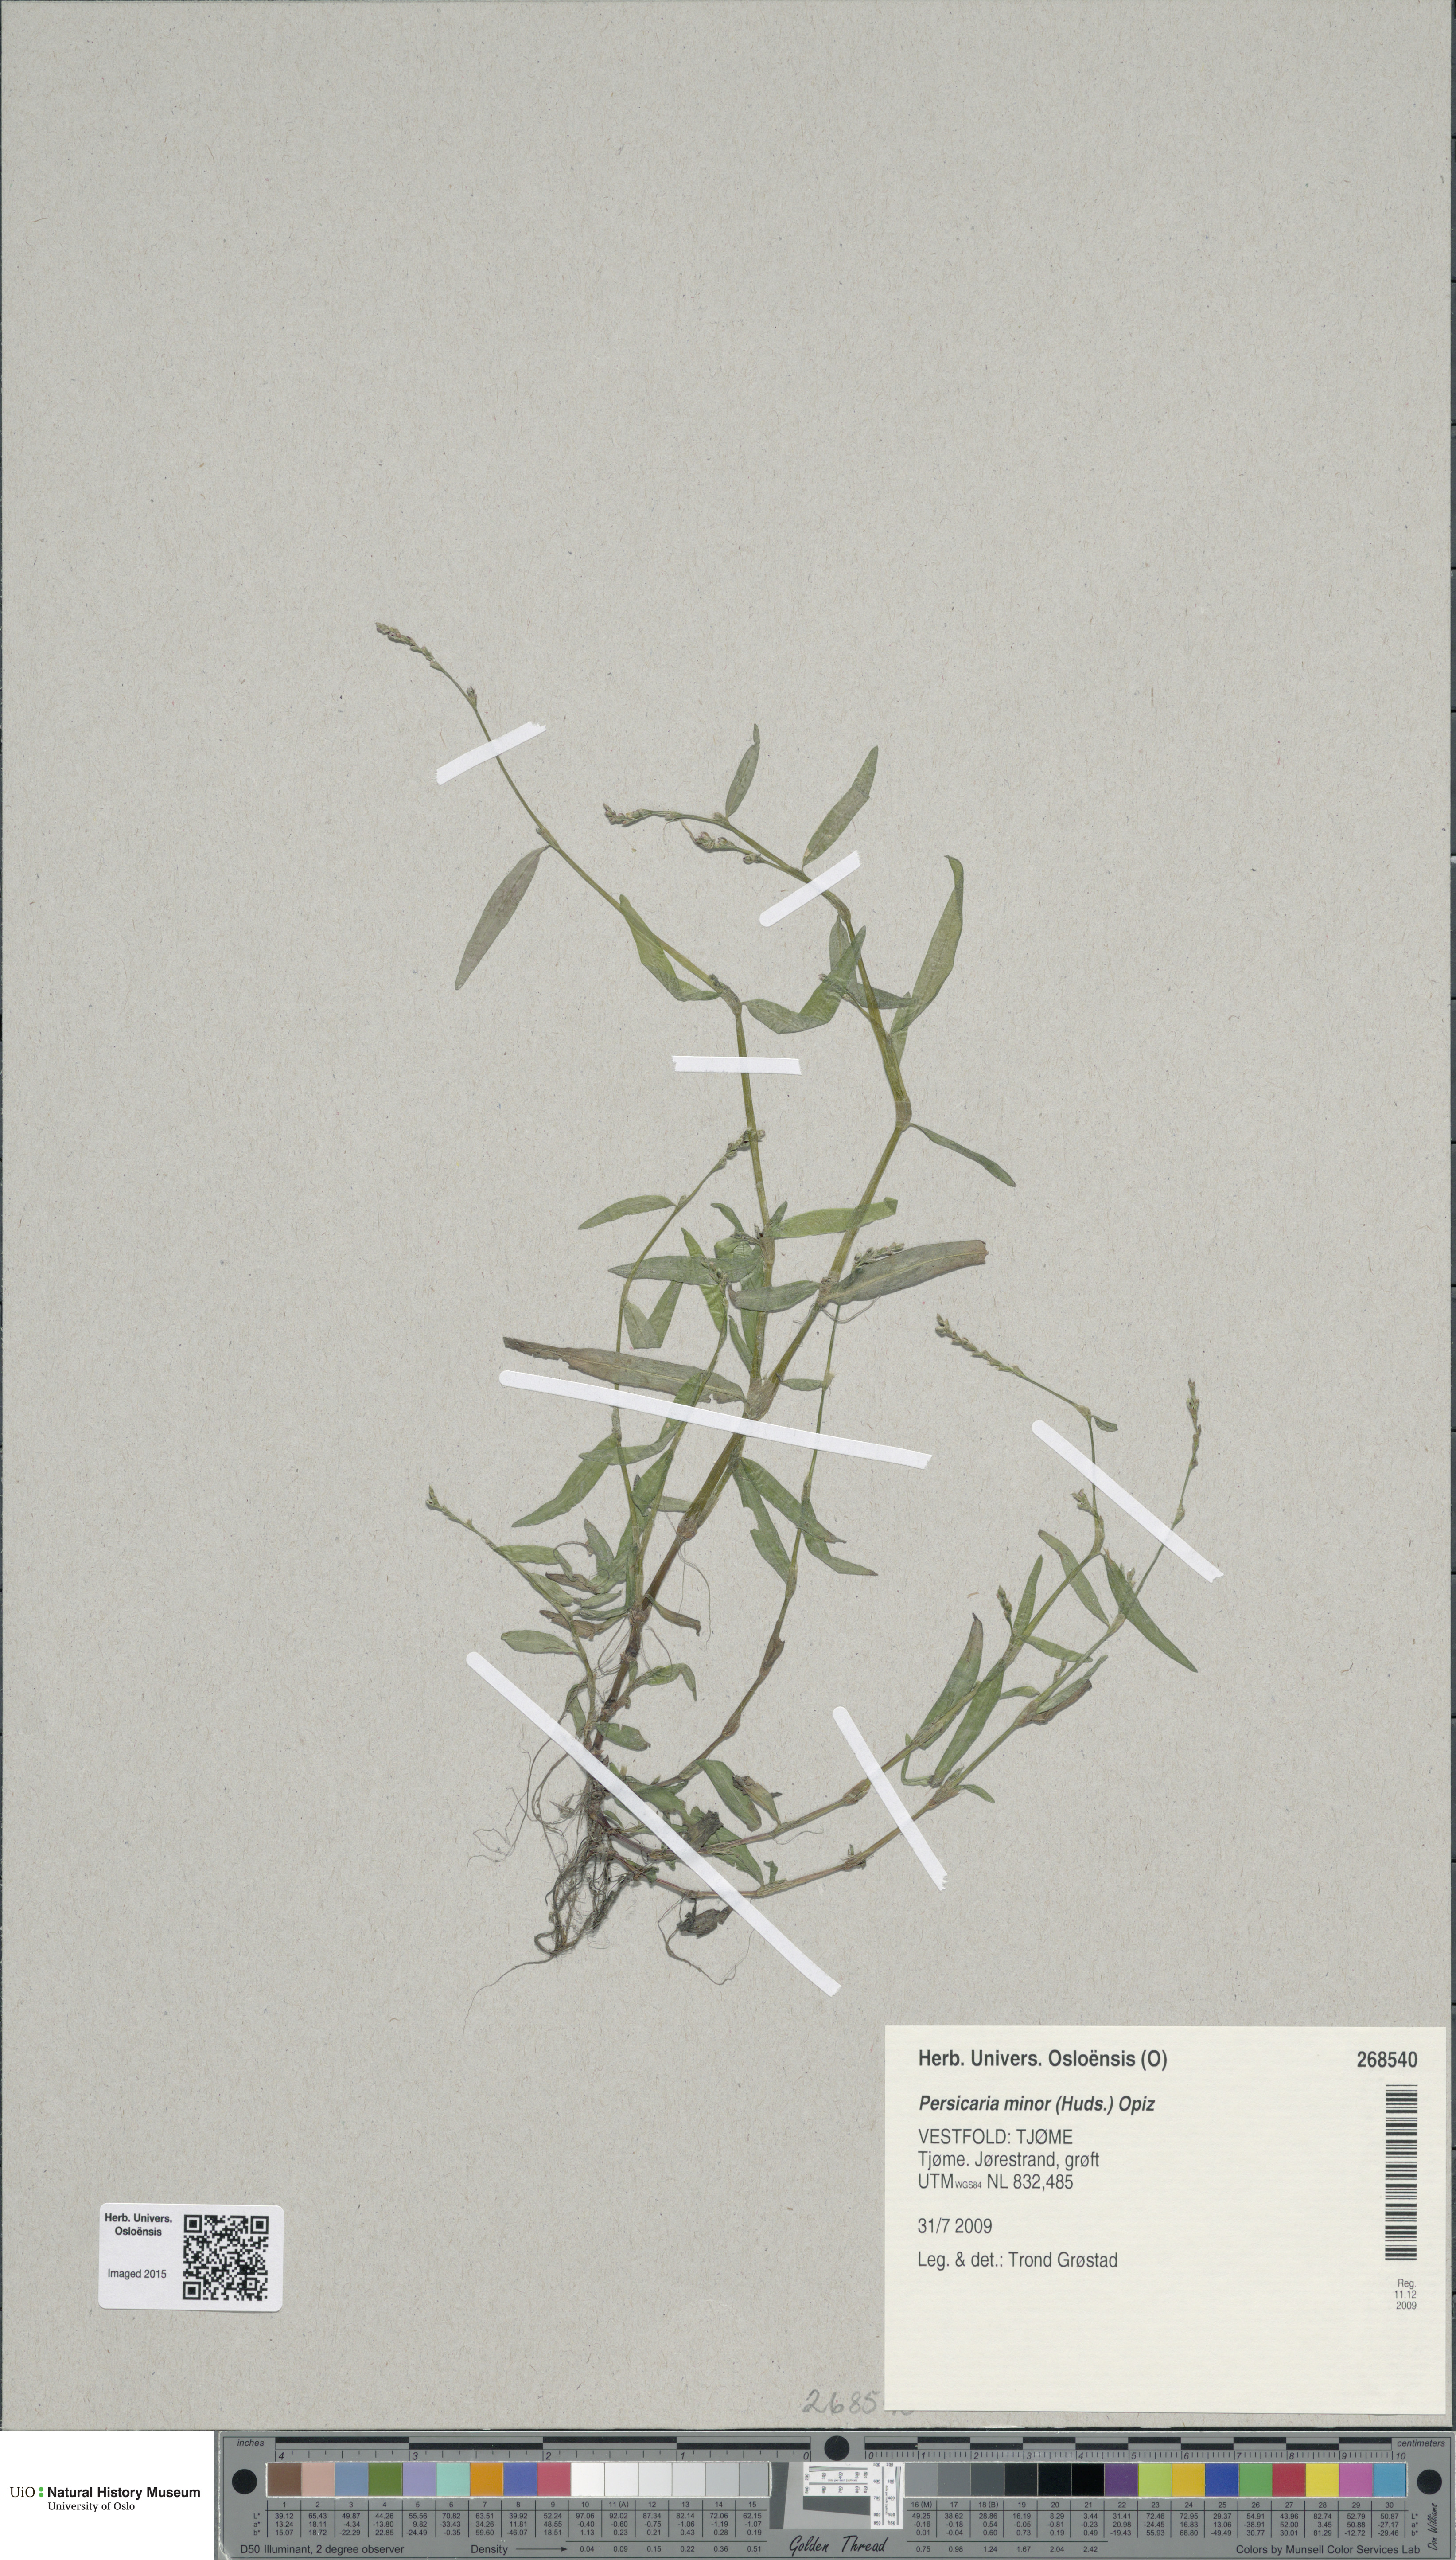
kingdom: Plantae
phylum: Tracheophyta
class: Magnoliopsida
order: Caryophyllales
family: Polygonaceae
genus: Persicaria
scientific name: Persicaria minor
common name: Small water-pepper
